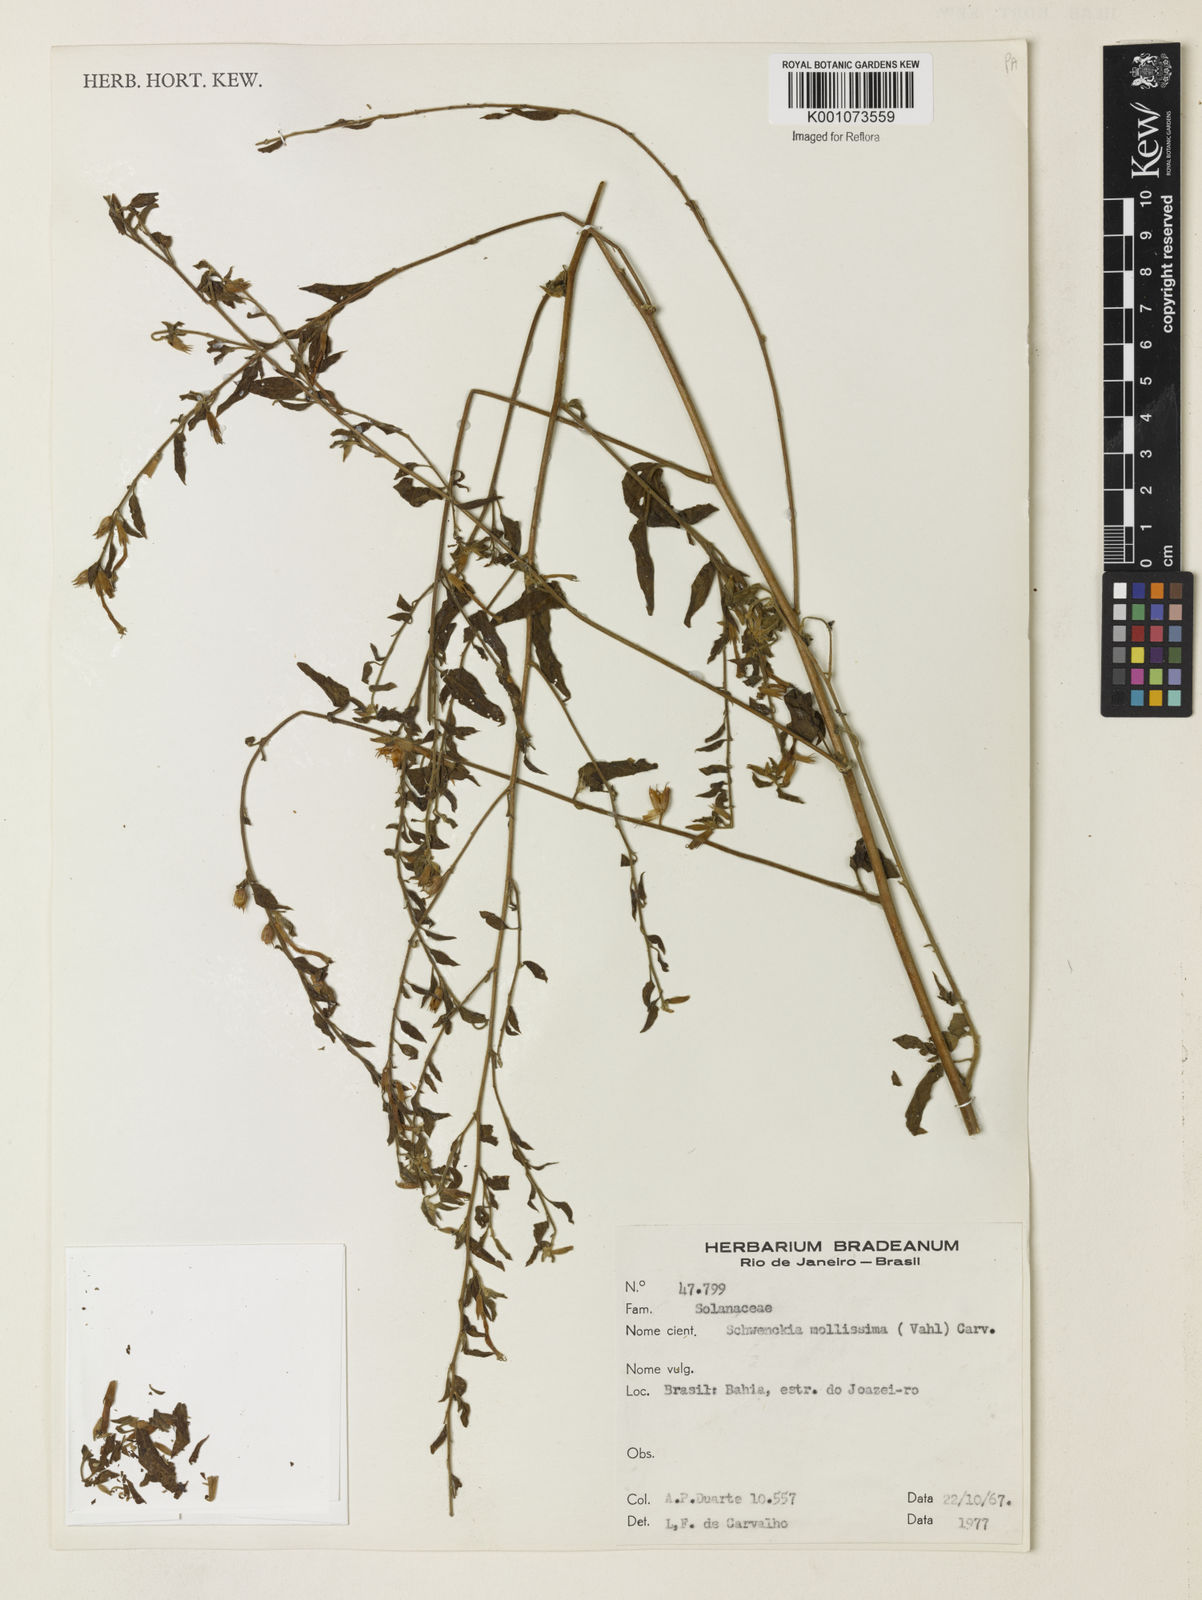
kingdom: Plantae
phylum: Tracheophyta
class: Magnoliopsida
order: Solanales
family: Solanaceae
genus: Schwenckia
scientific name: Schwenckia mollissima
